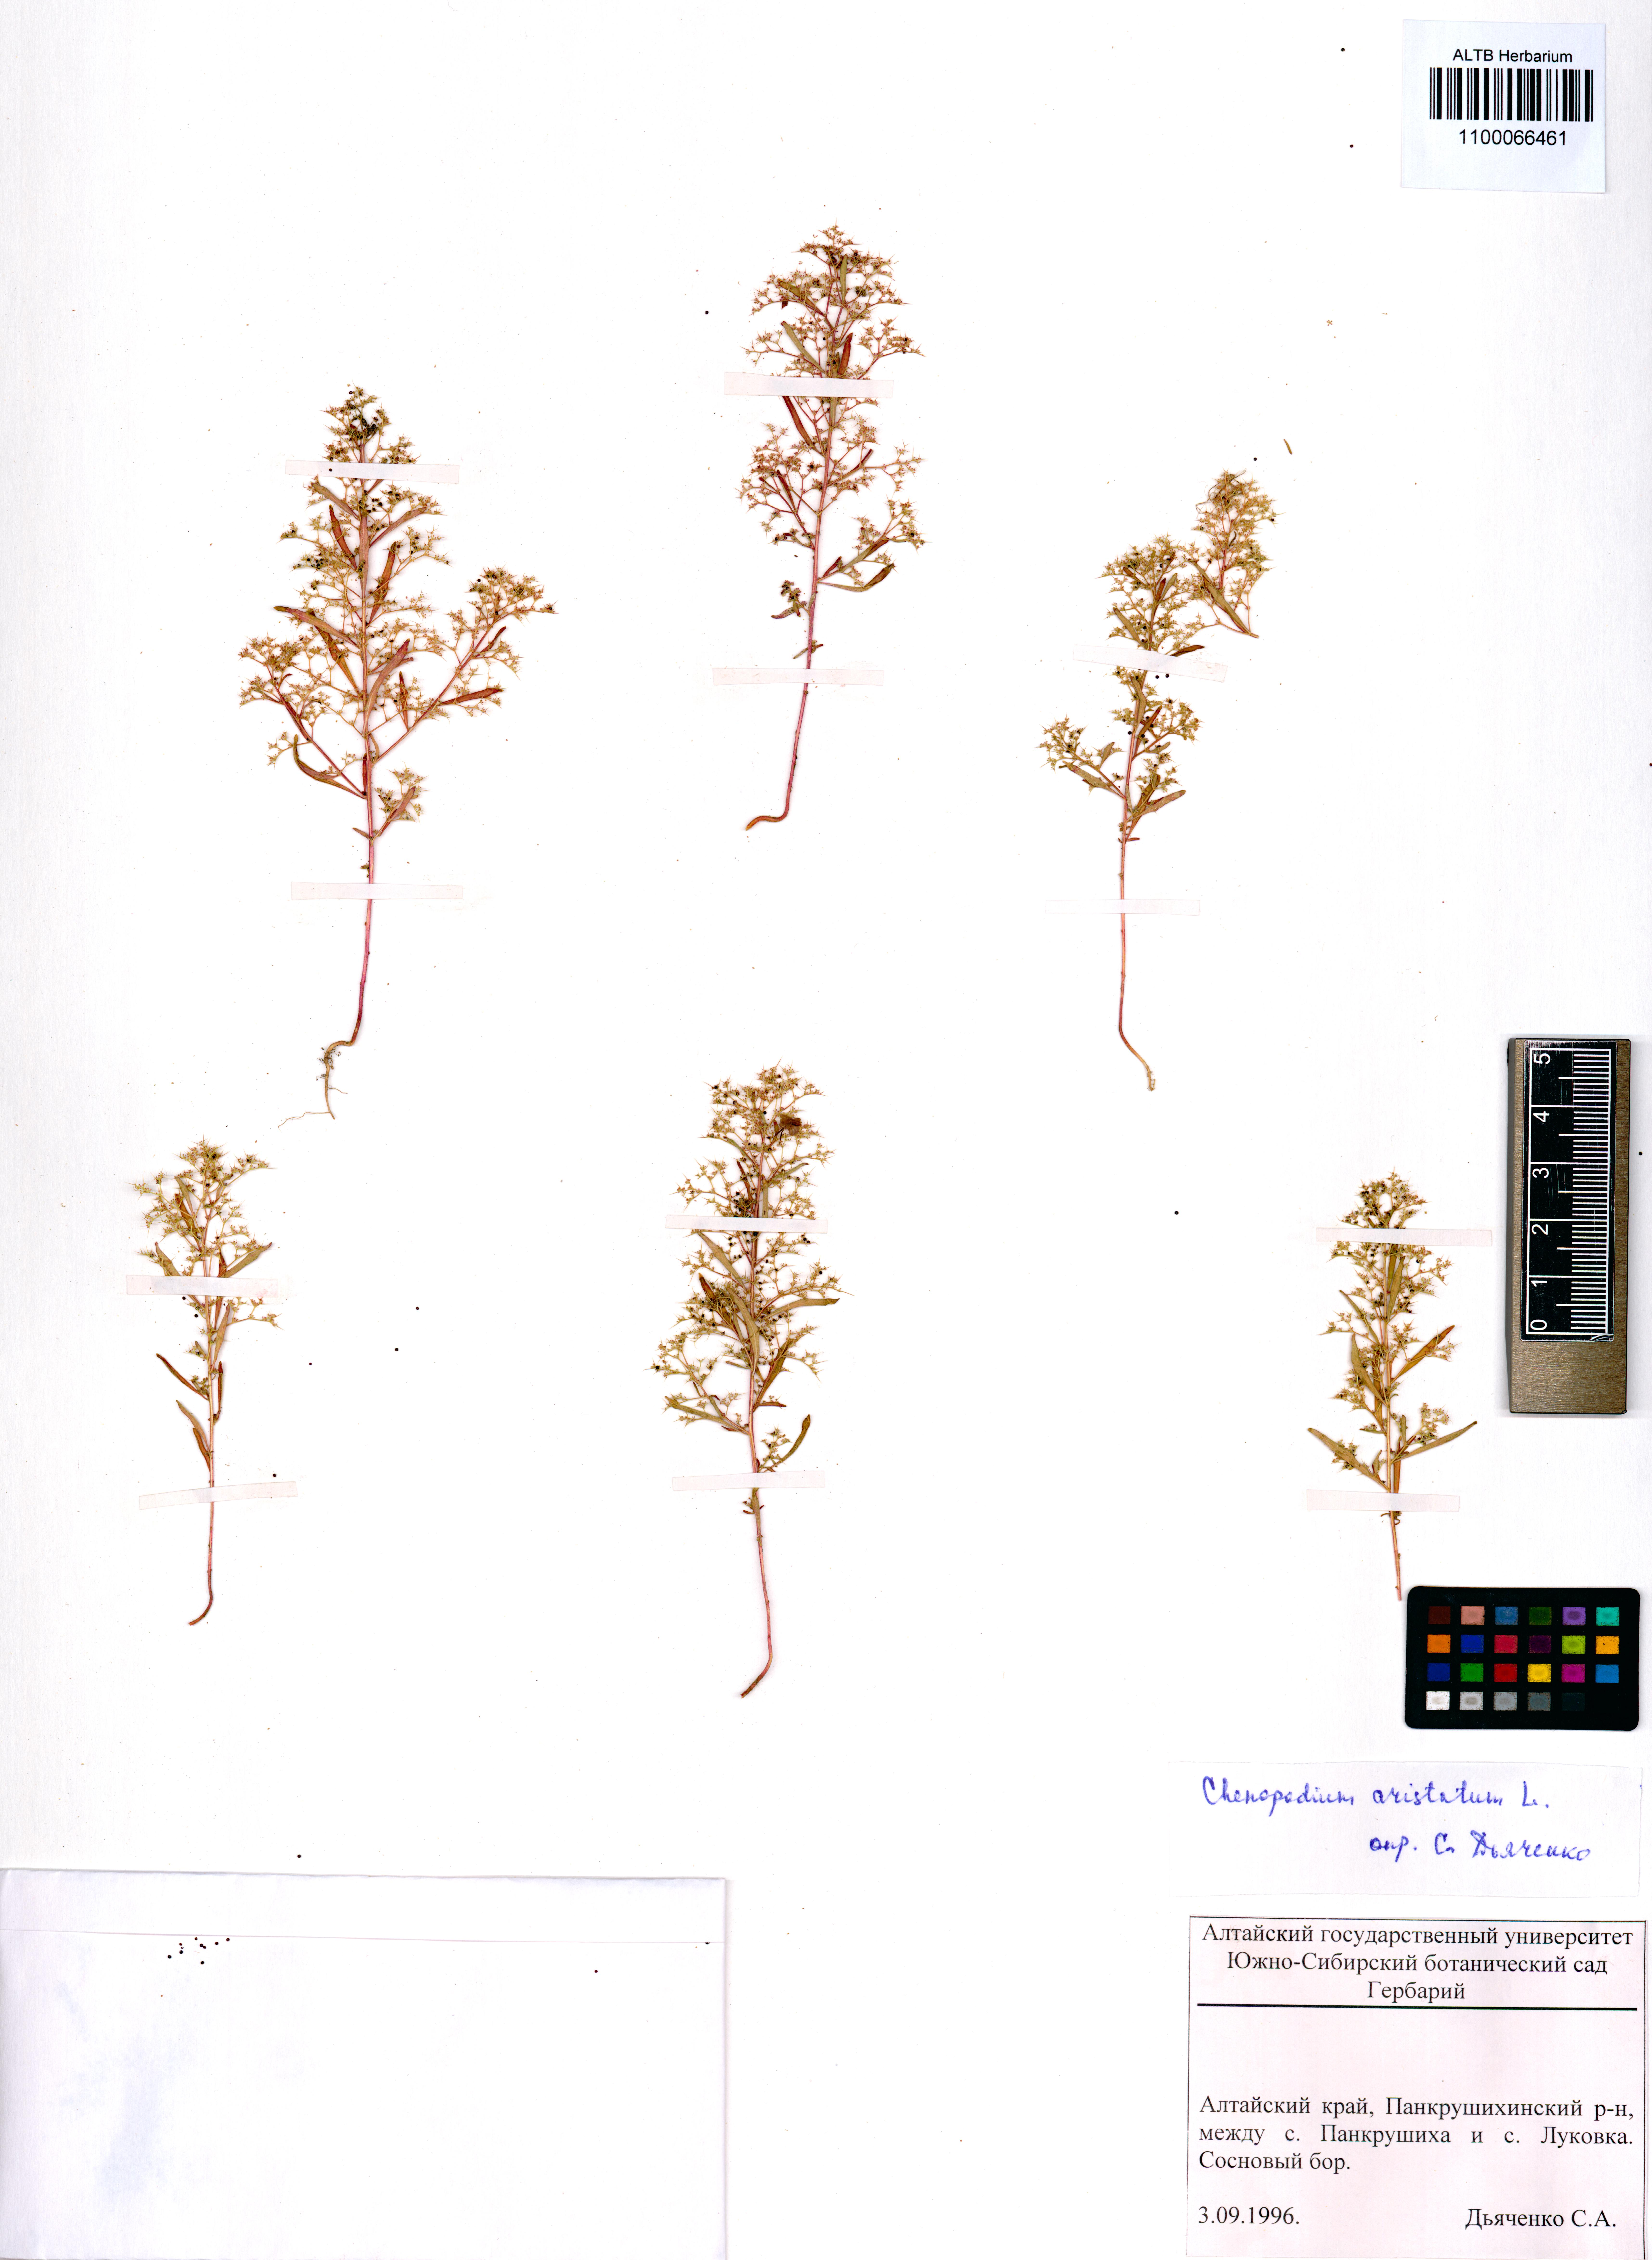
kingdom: Plantae
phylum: Tracheophyta
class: Magnoliopsida
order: Caryophyllales
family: Amaranthaceae
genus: Teloxys
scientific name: Teloxys aristata
